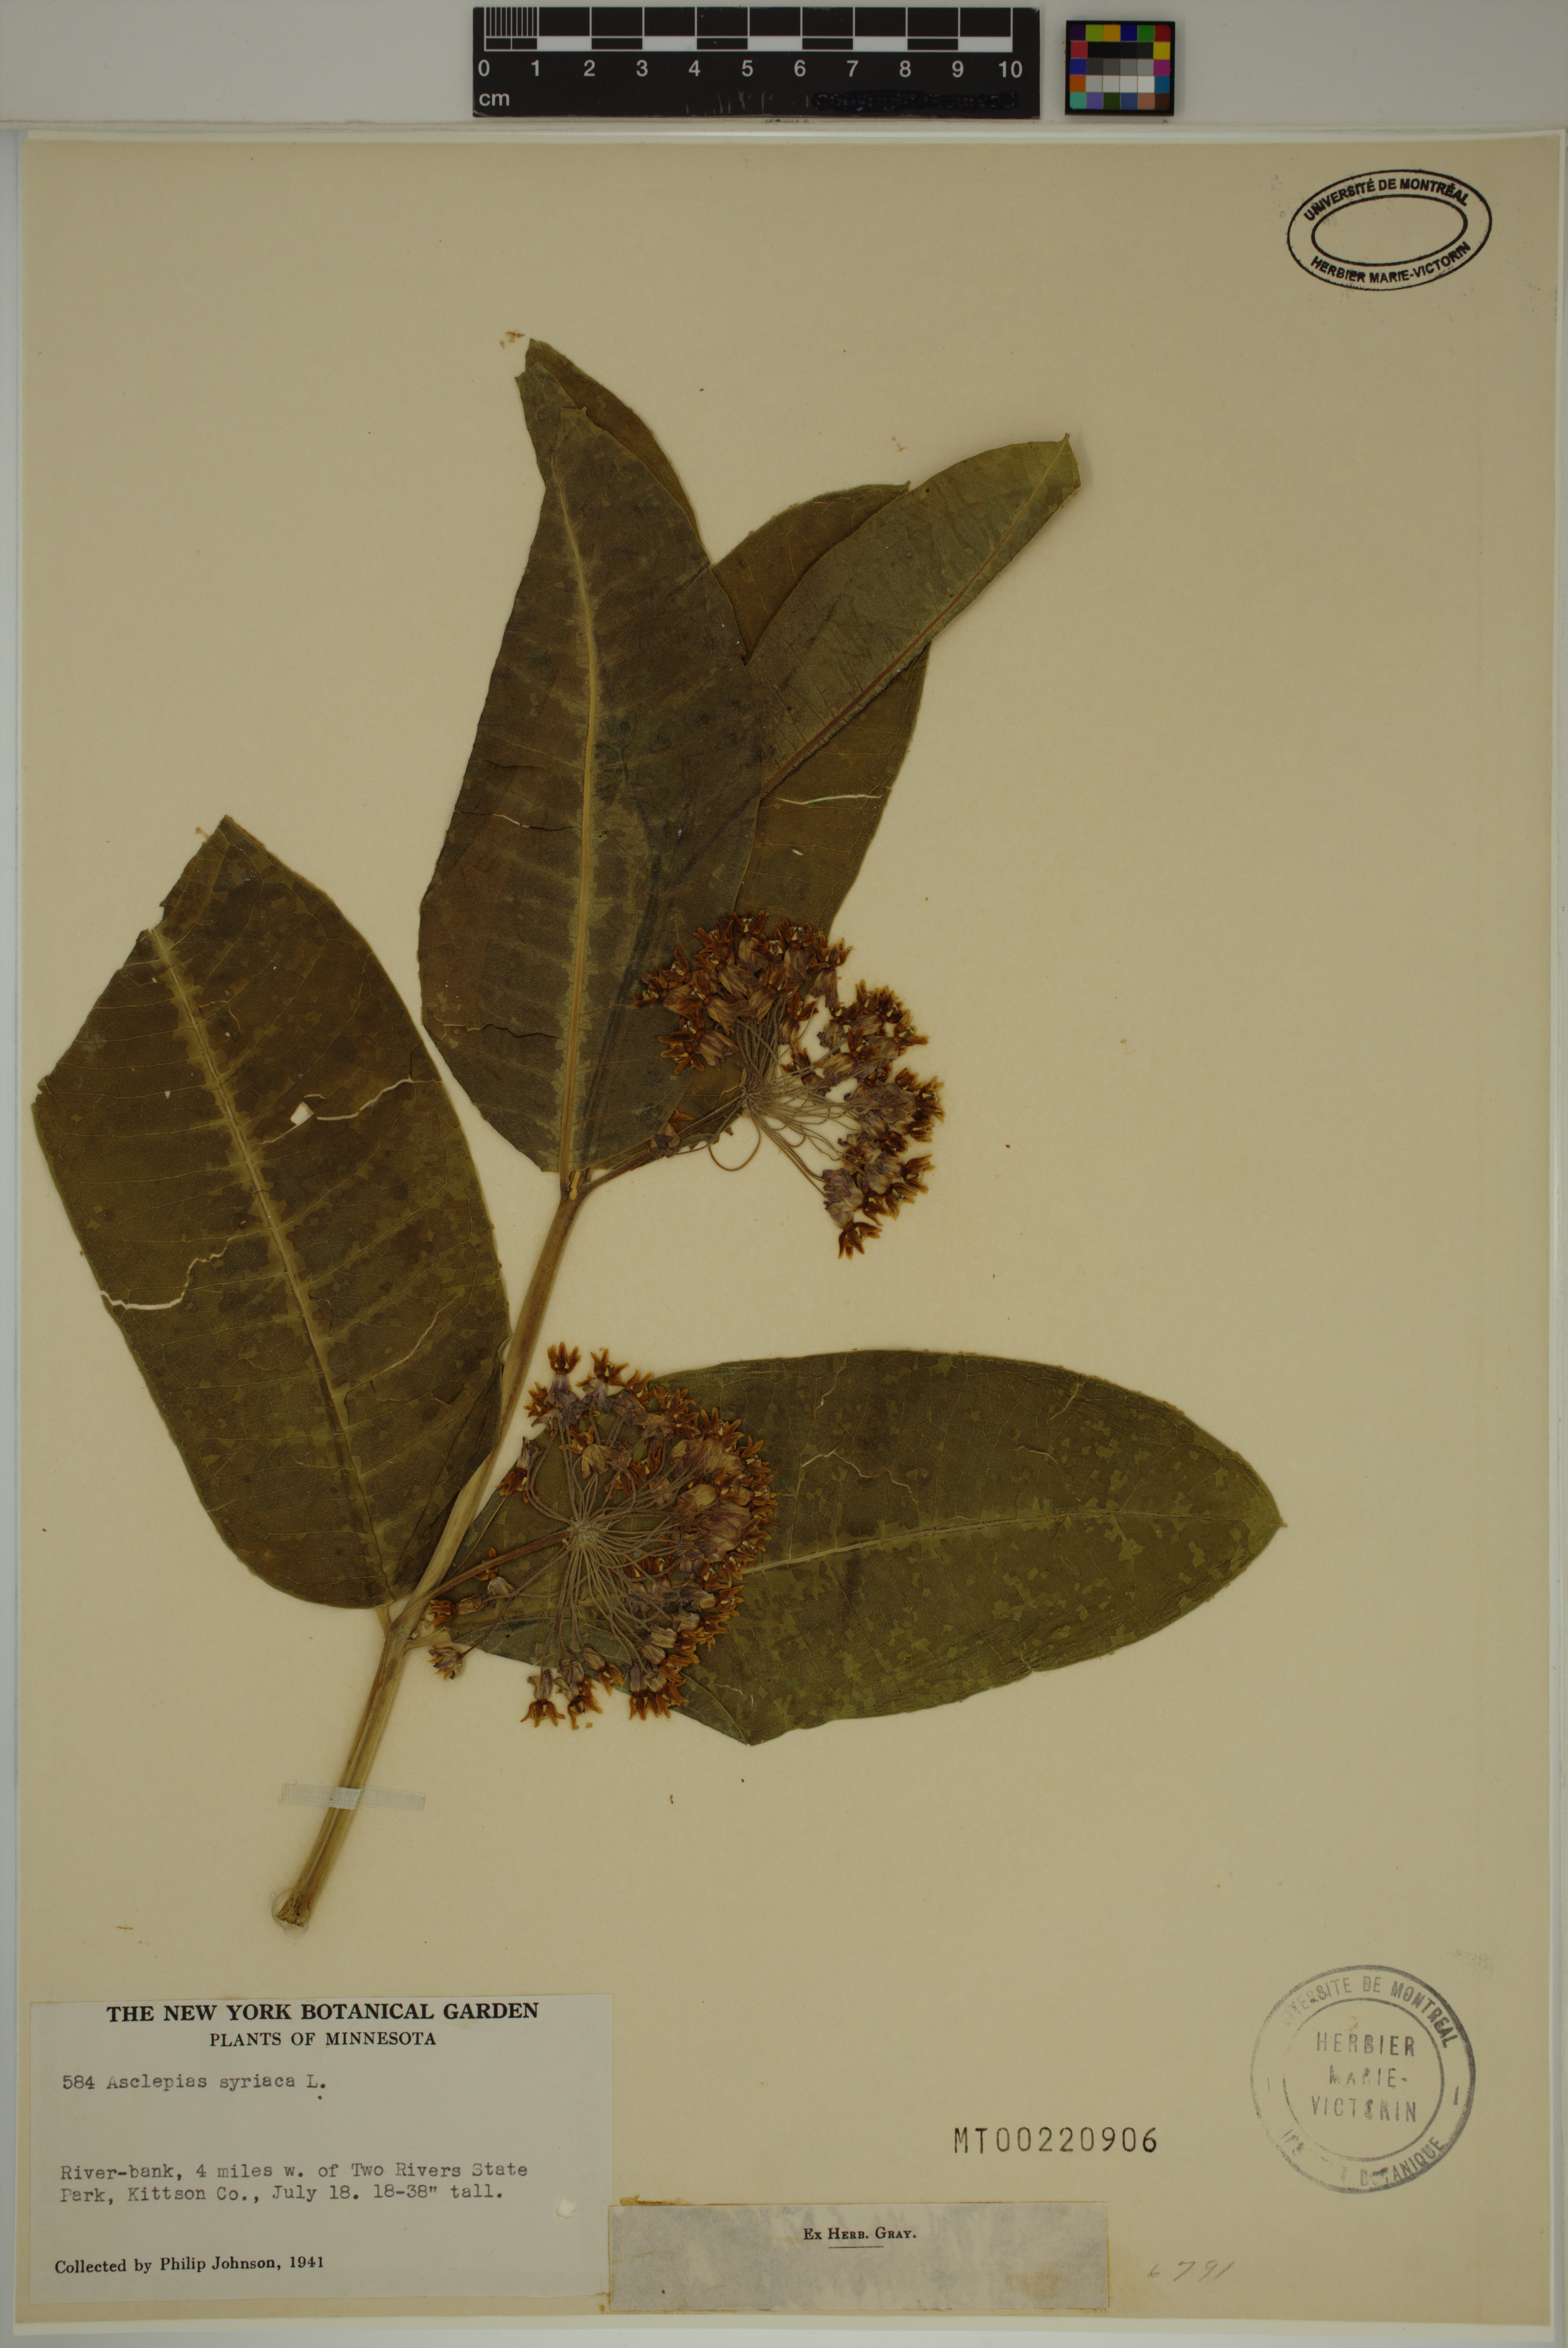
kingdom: Plantae
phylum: Tracheophyta
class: Magnoliopsida
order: Gentianales
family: Apocynaceae
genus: Asclepias
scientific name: Asclepias syriaca
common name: Common milkweed
